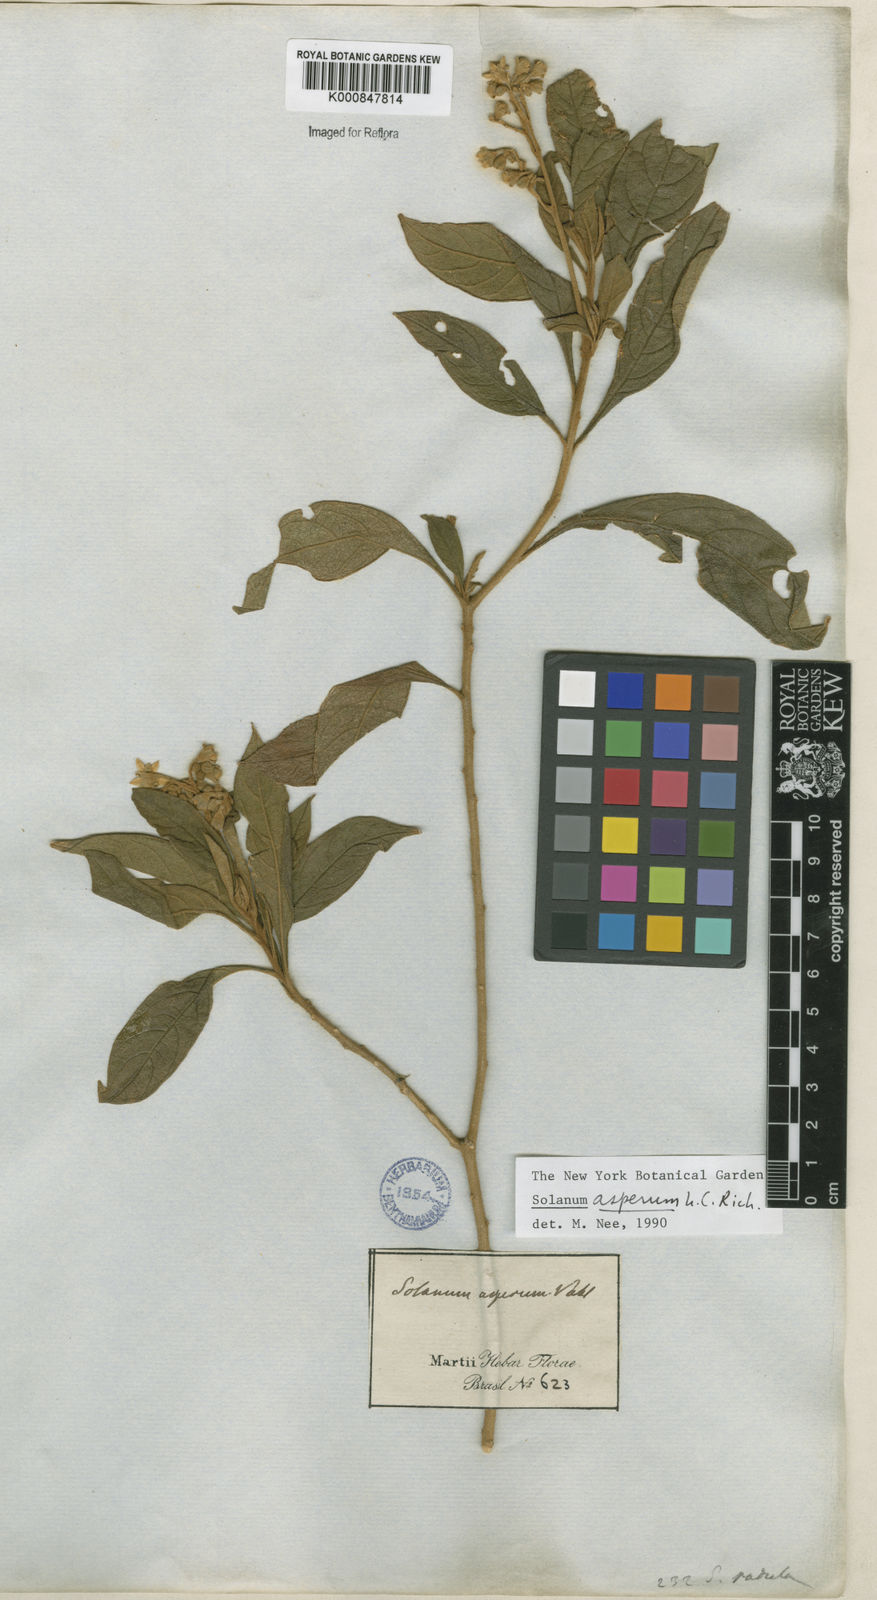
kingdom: Plantae
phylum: Tracheophyta
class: Magnoliopsida
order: Solanales
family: Solanaceae
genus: Solanum
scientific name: Solanum asperum
